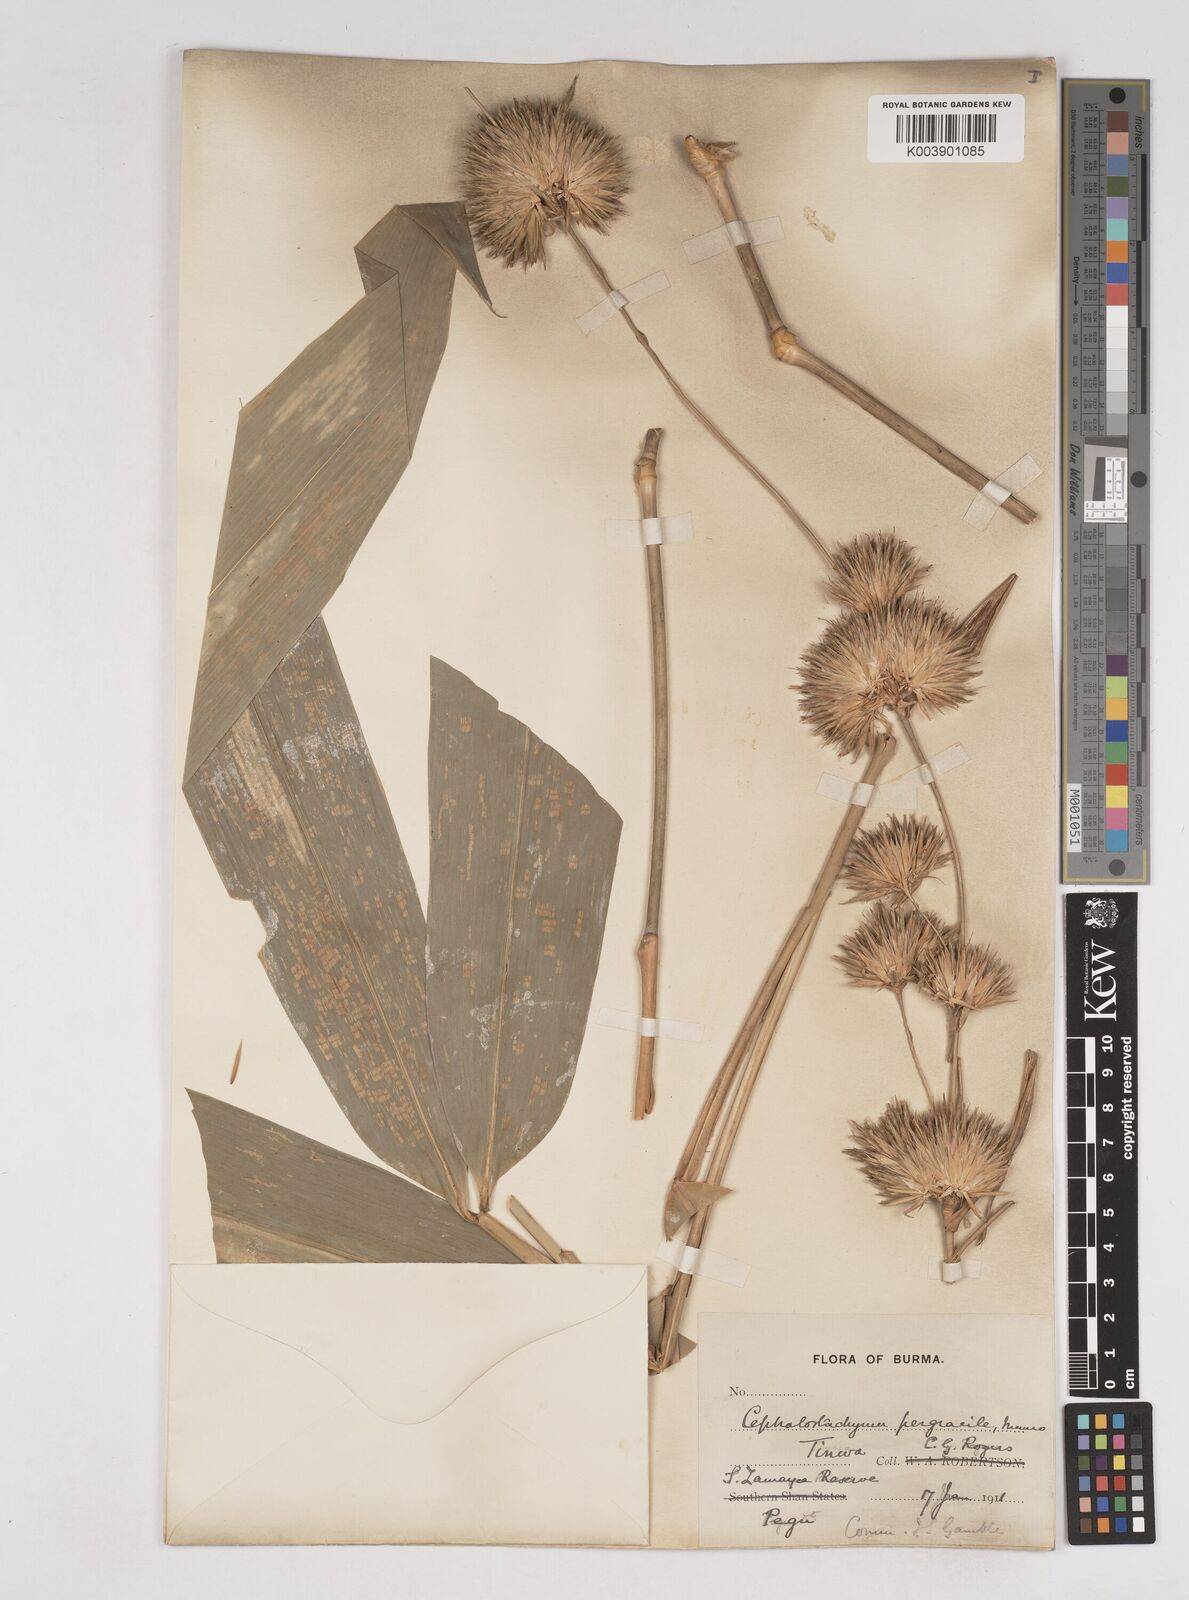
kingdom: Plantae
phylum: Tracheophyta
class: Liliopsida
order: Poales
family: Poaceae
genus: Schizostachyum
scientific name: Schizostachyum pergracile
